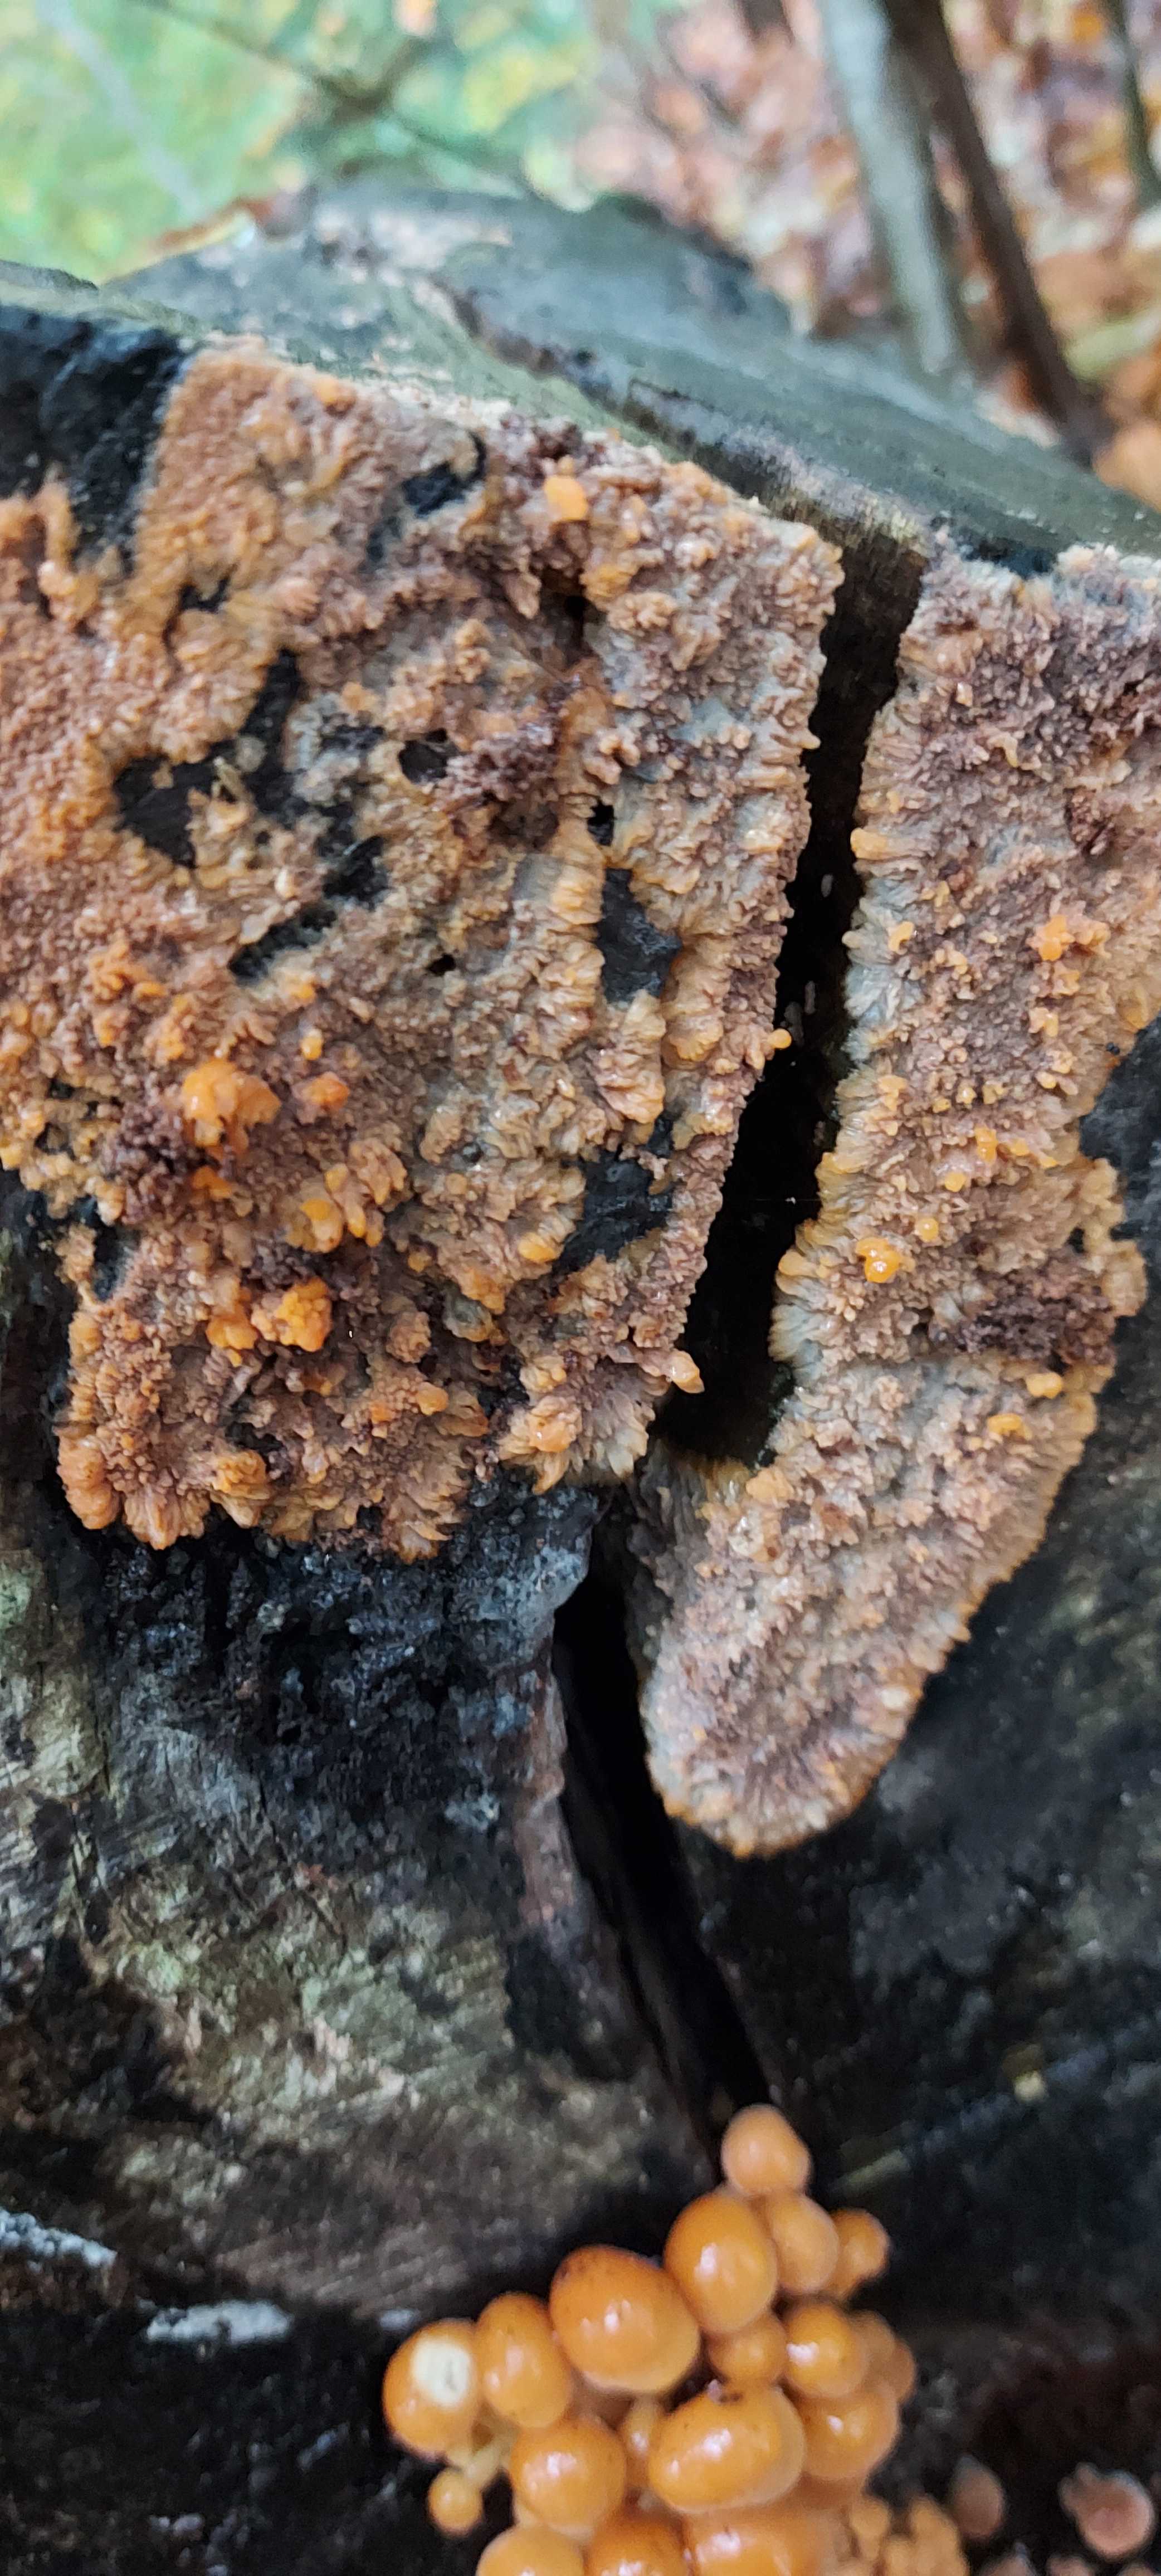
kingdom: Fungi
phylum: Basidiomycota
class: Agaricomycetes
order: Polyporales
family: Meruliaceae
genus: Phlebia
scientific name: Phlebia radiata
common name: stråle-åresvamp
